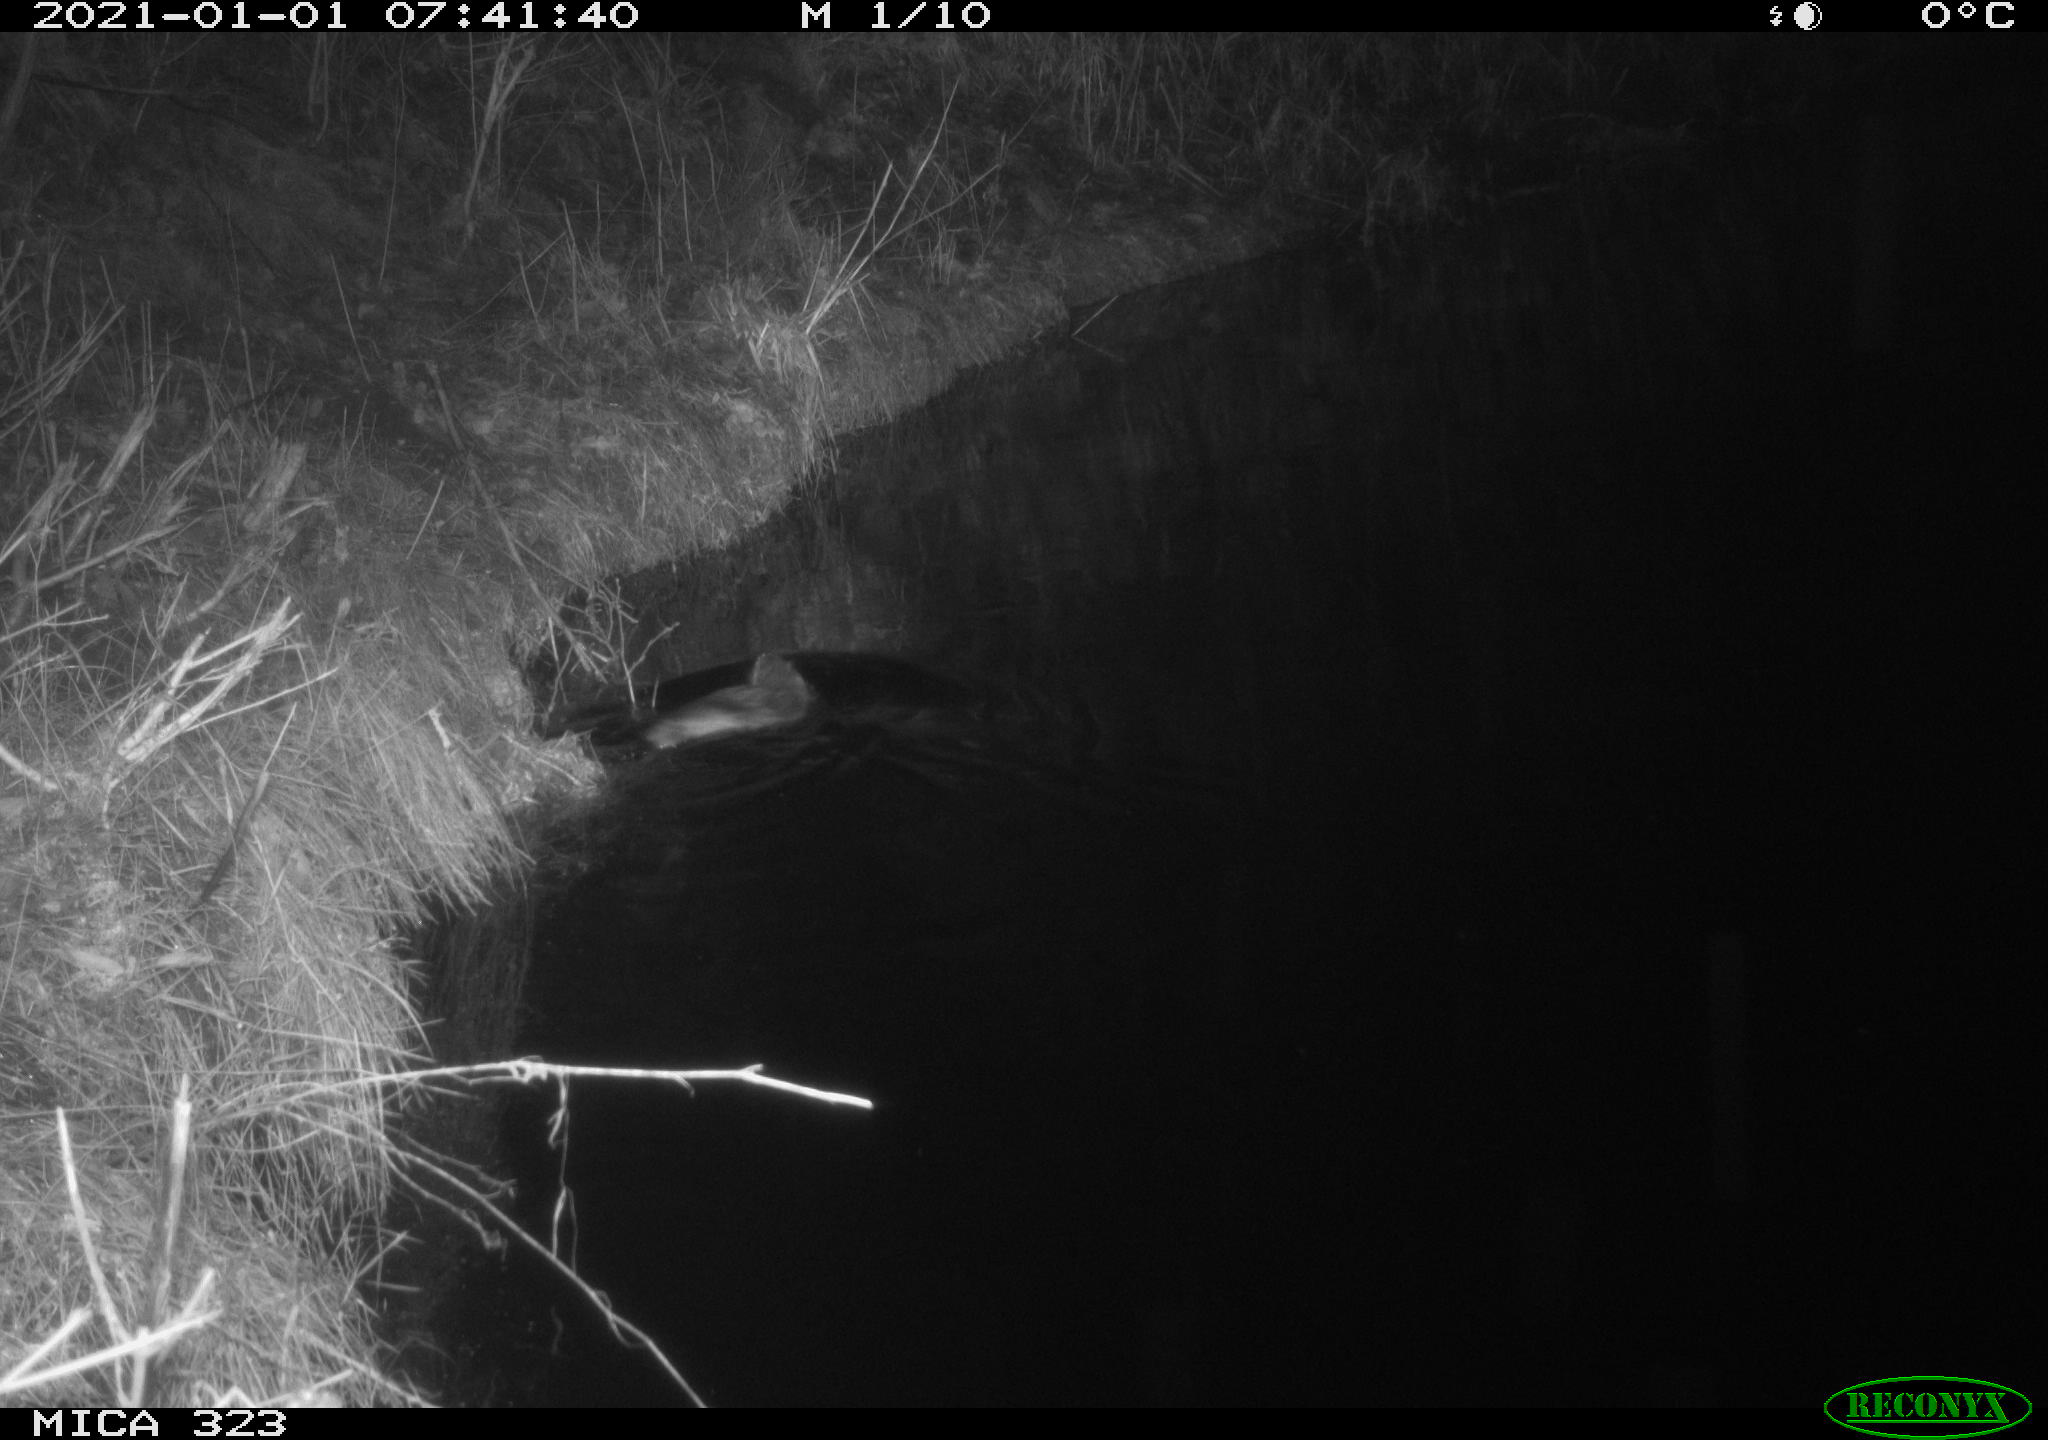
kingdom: Animalia
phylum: Chordata
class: Mammalia
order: Rodentia
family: Myocastoridae
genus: Myocastor
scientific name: Myocastor coypus
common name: Coypu
